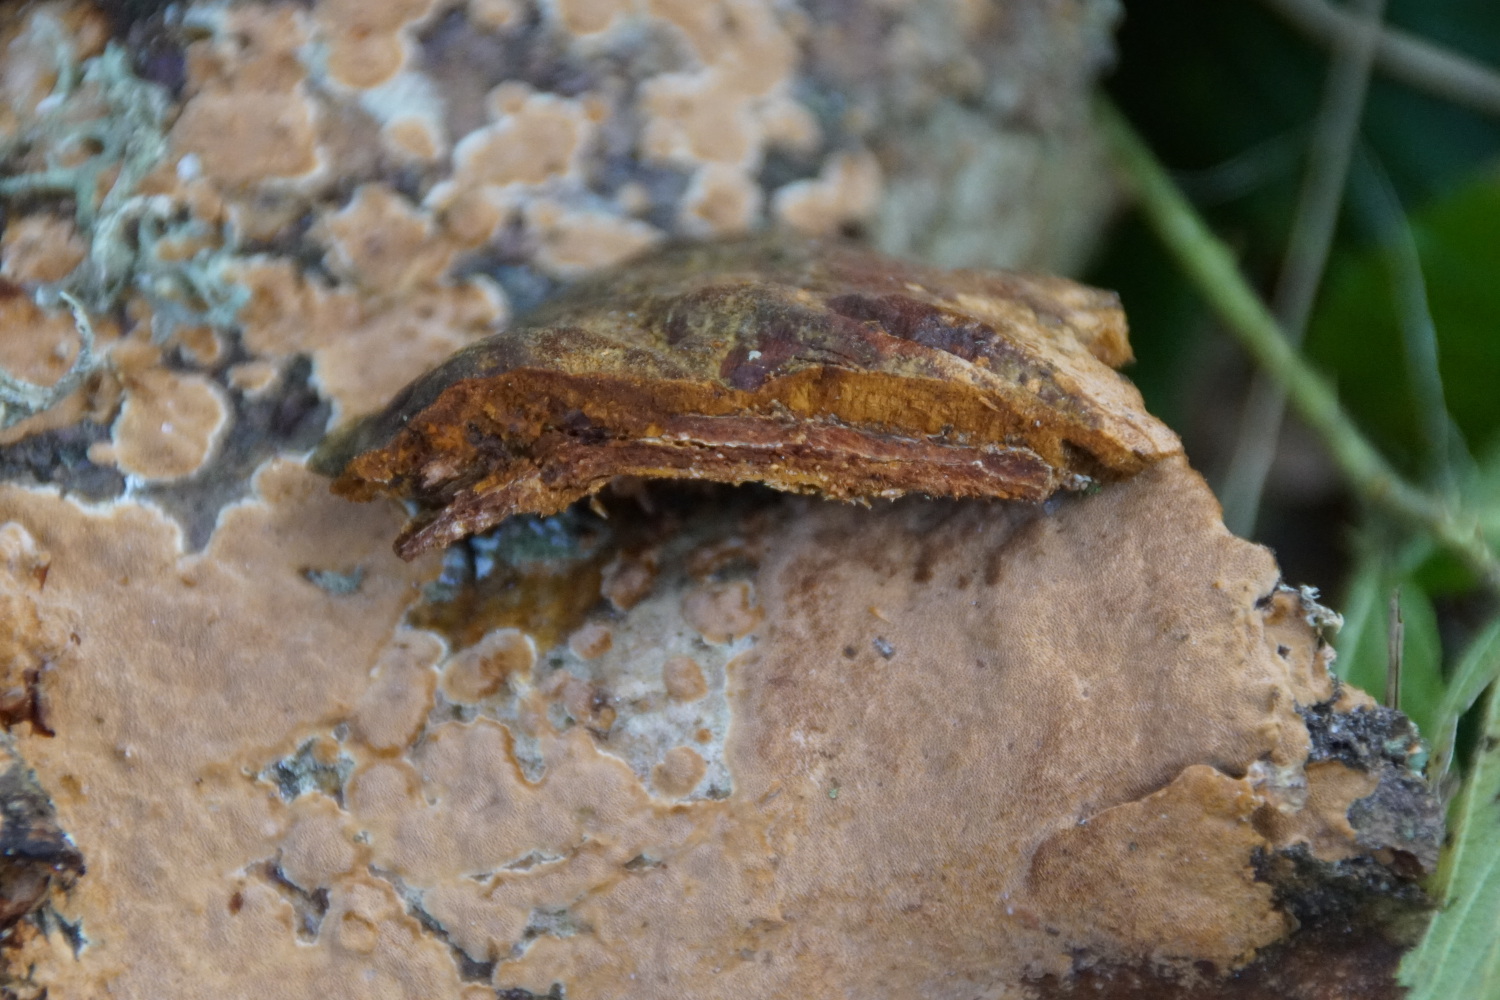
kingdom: Fungi
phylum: Basidiomycota
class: Agaricomycetes
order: Hymenochaetales
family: Hymenochaetaceae
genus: Fuscoporia
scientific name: Fuscoporia ferrea
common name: skorpe-ildporesvamp
